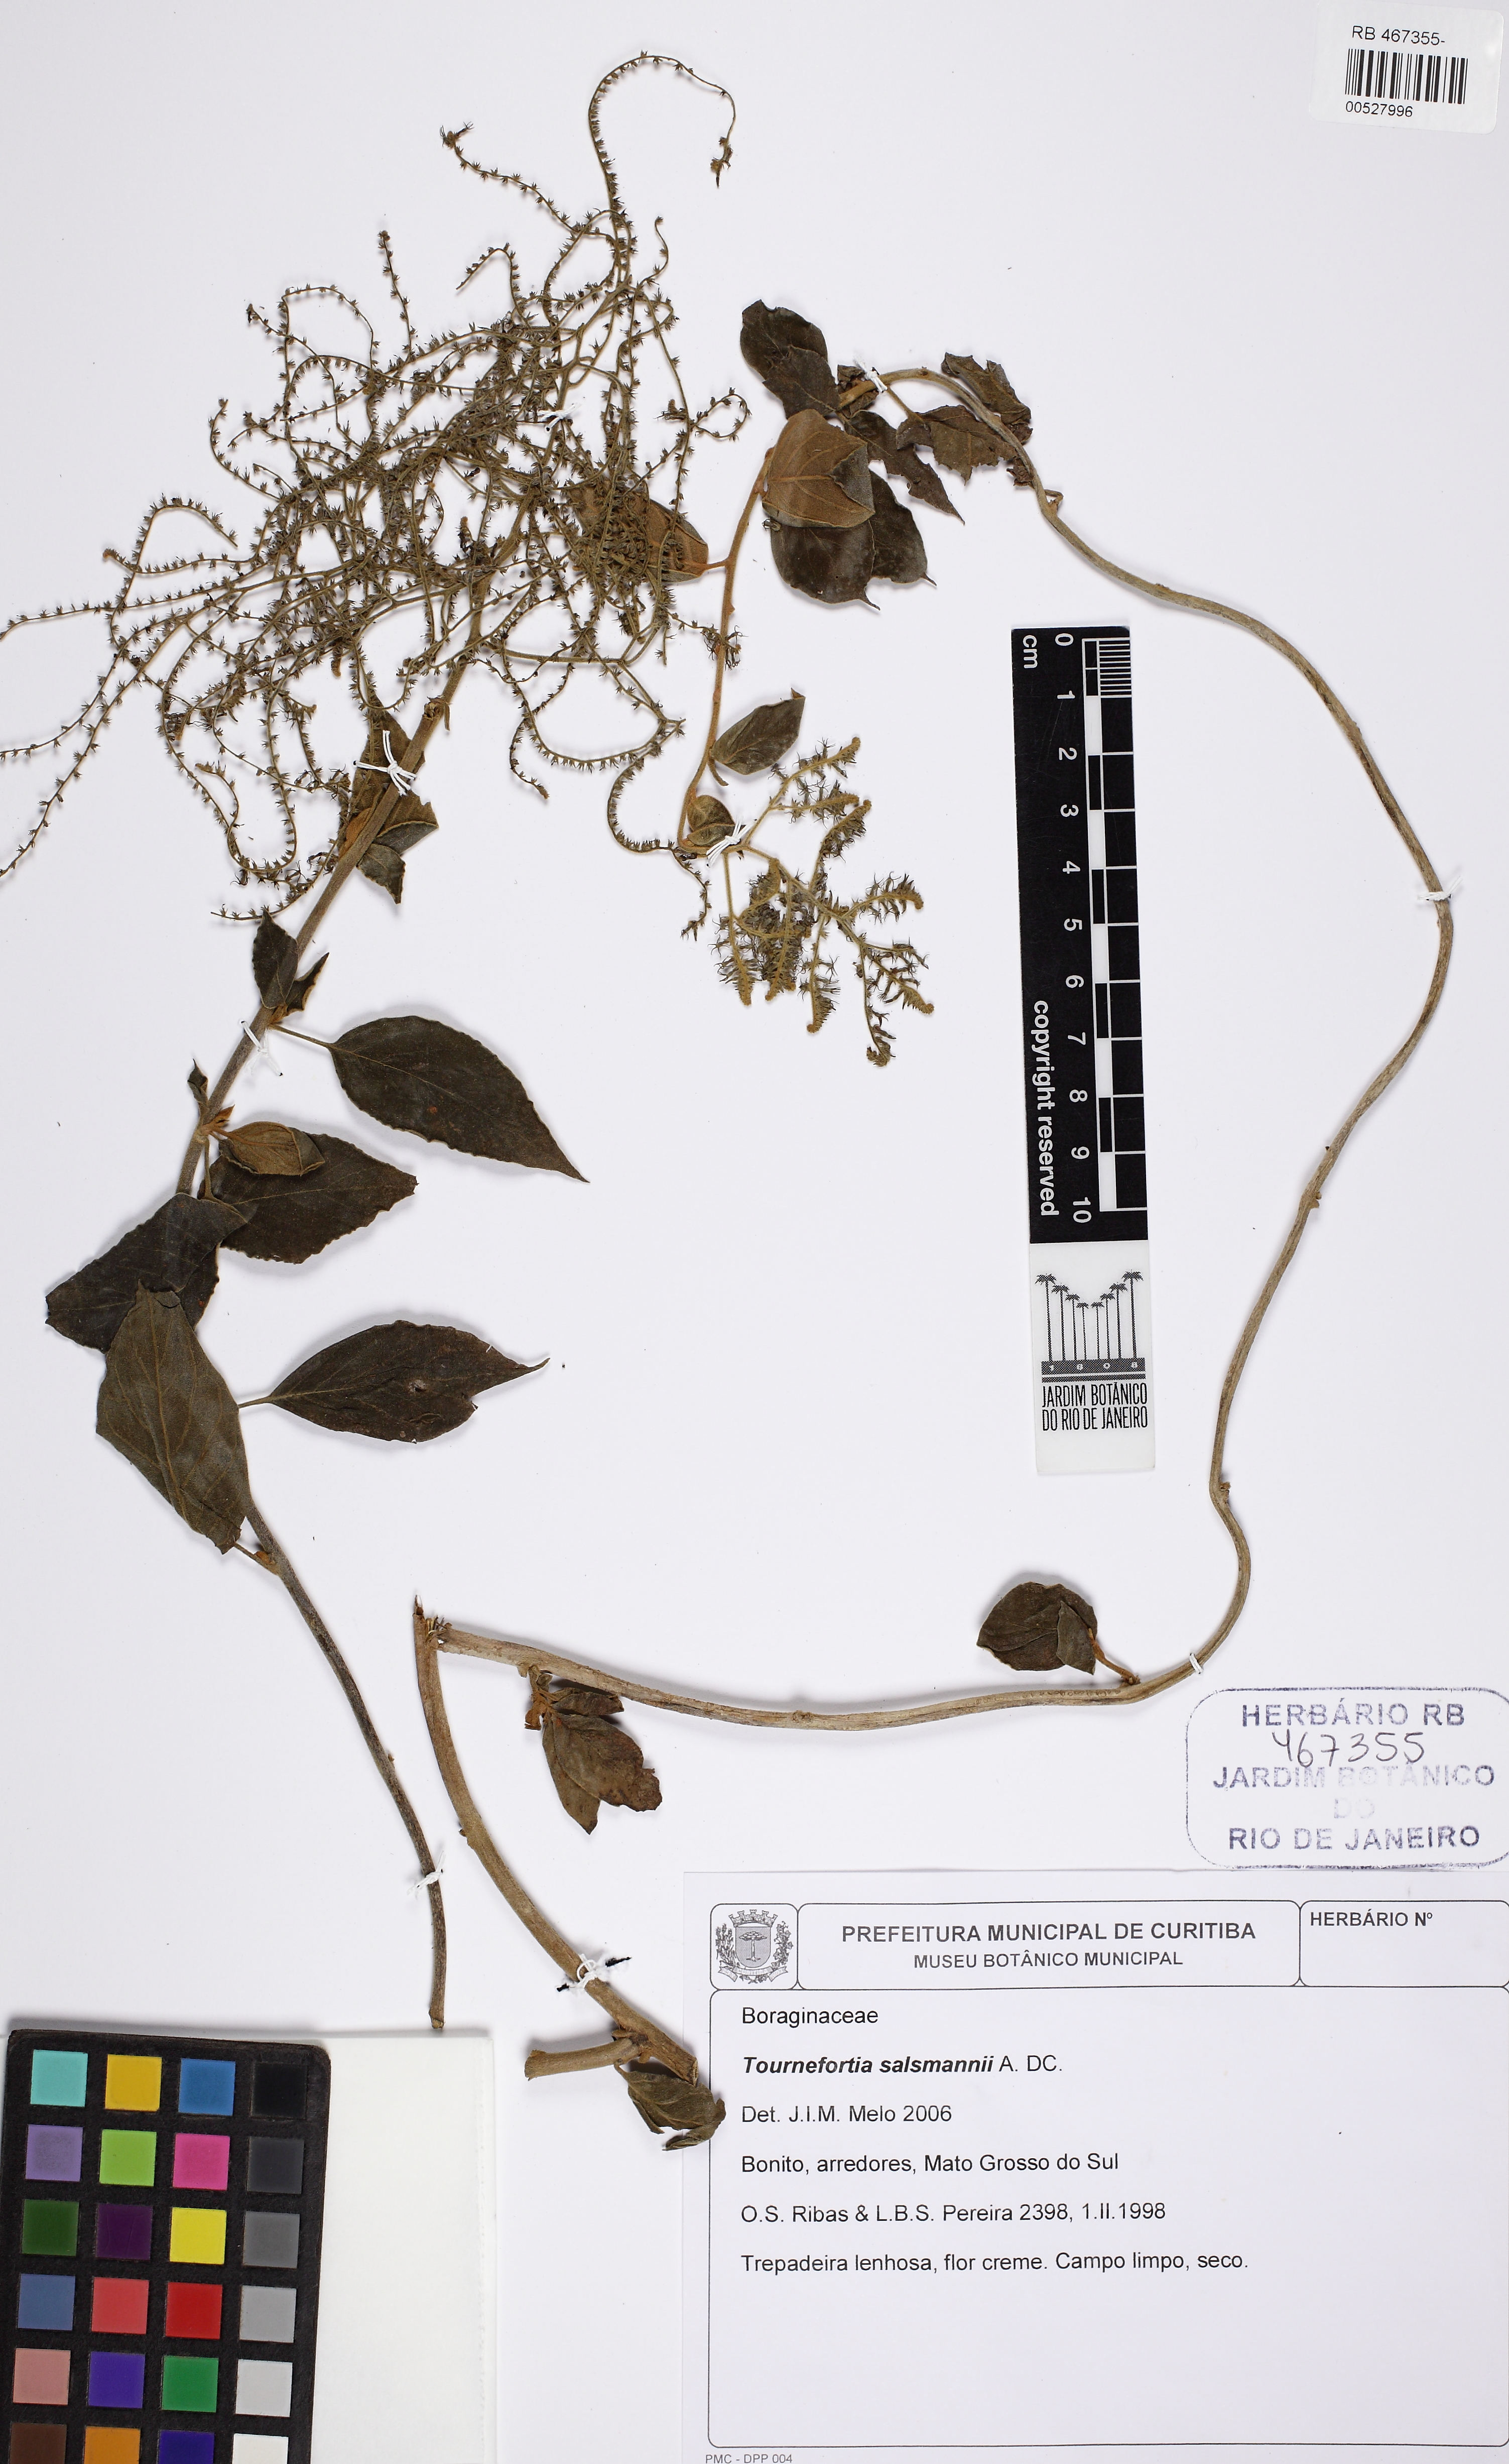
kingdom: Plantae
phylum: Tracheophyta
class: Magnoliopsida
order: Boraginales
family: Heliotropiaceae
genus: Myriopus
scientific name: Myriopus salzmannii
